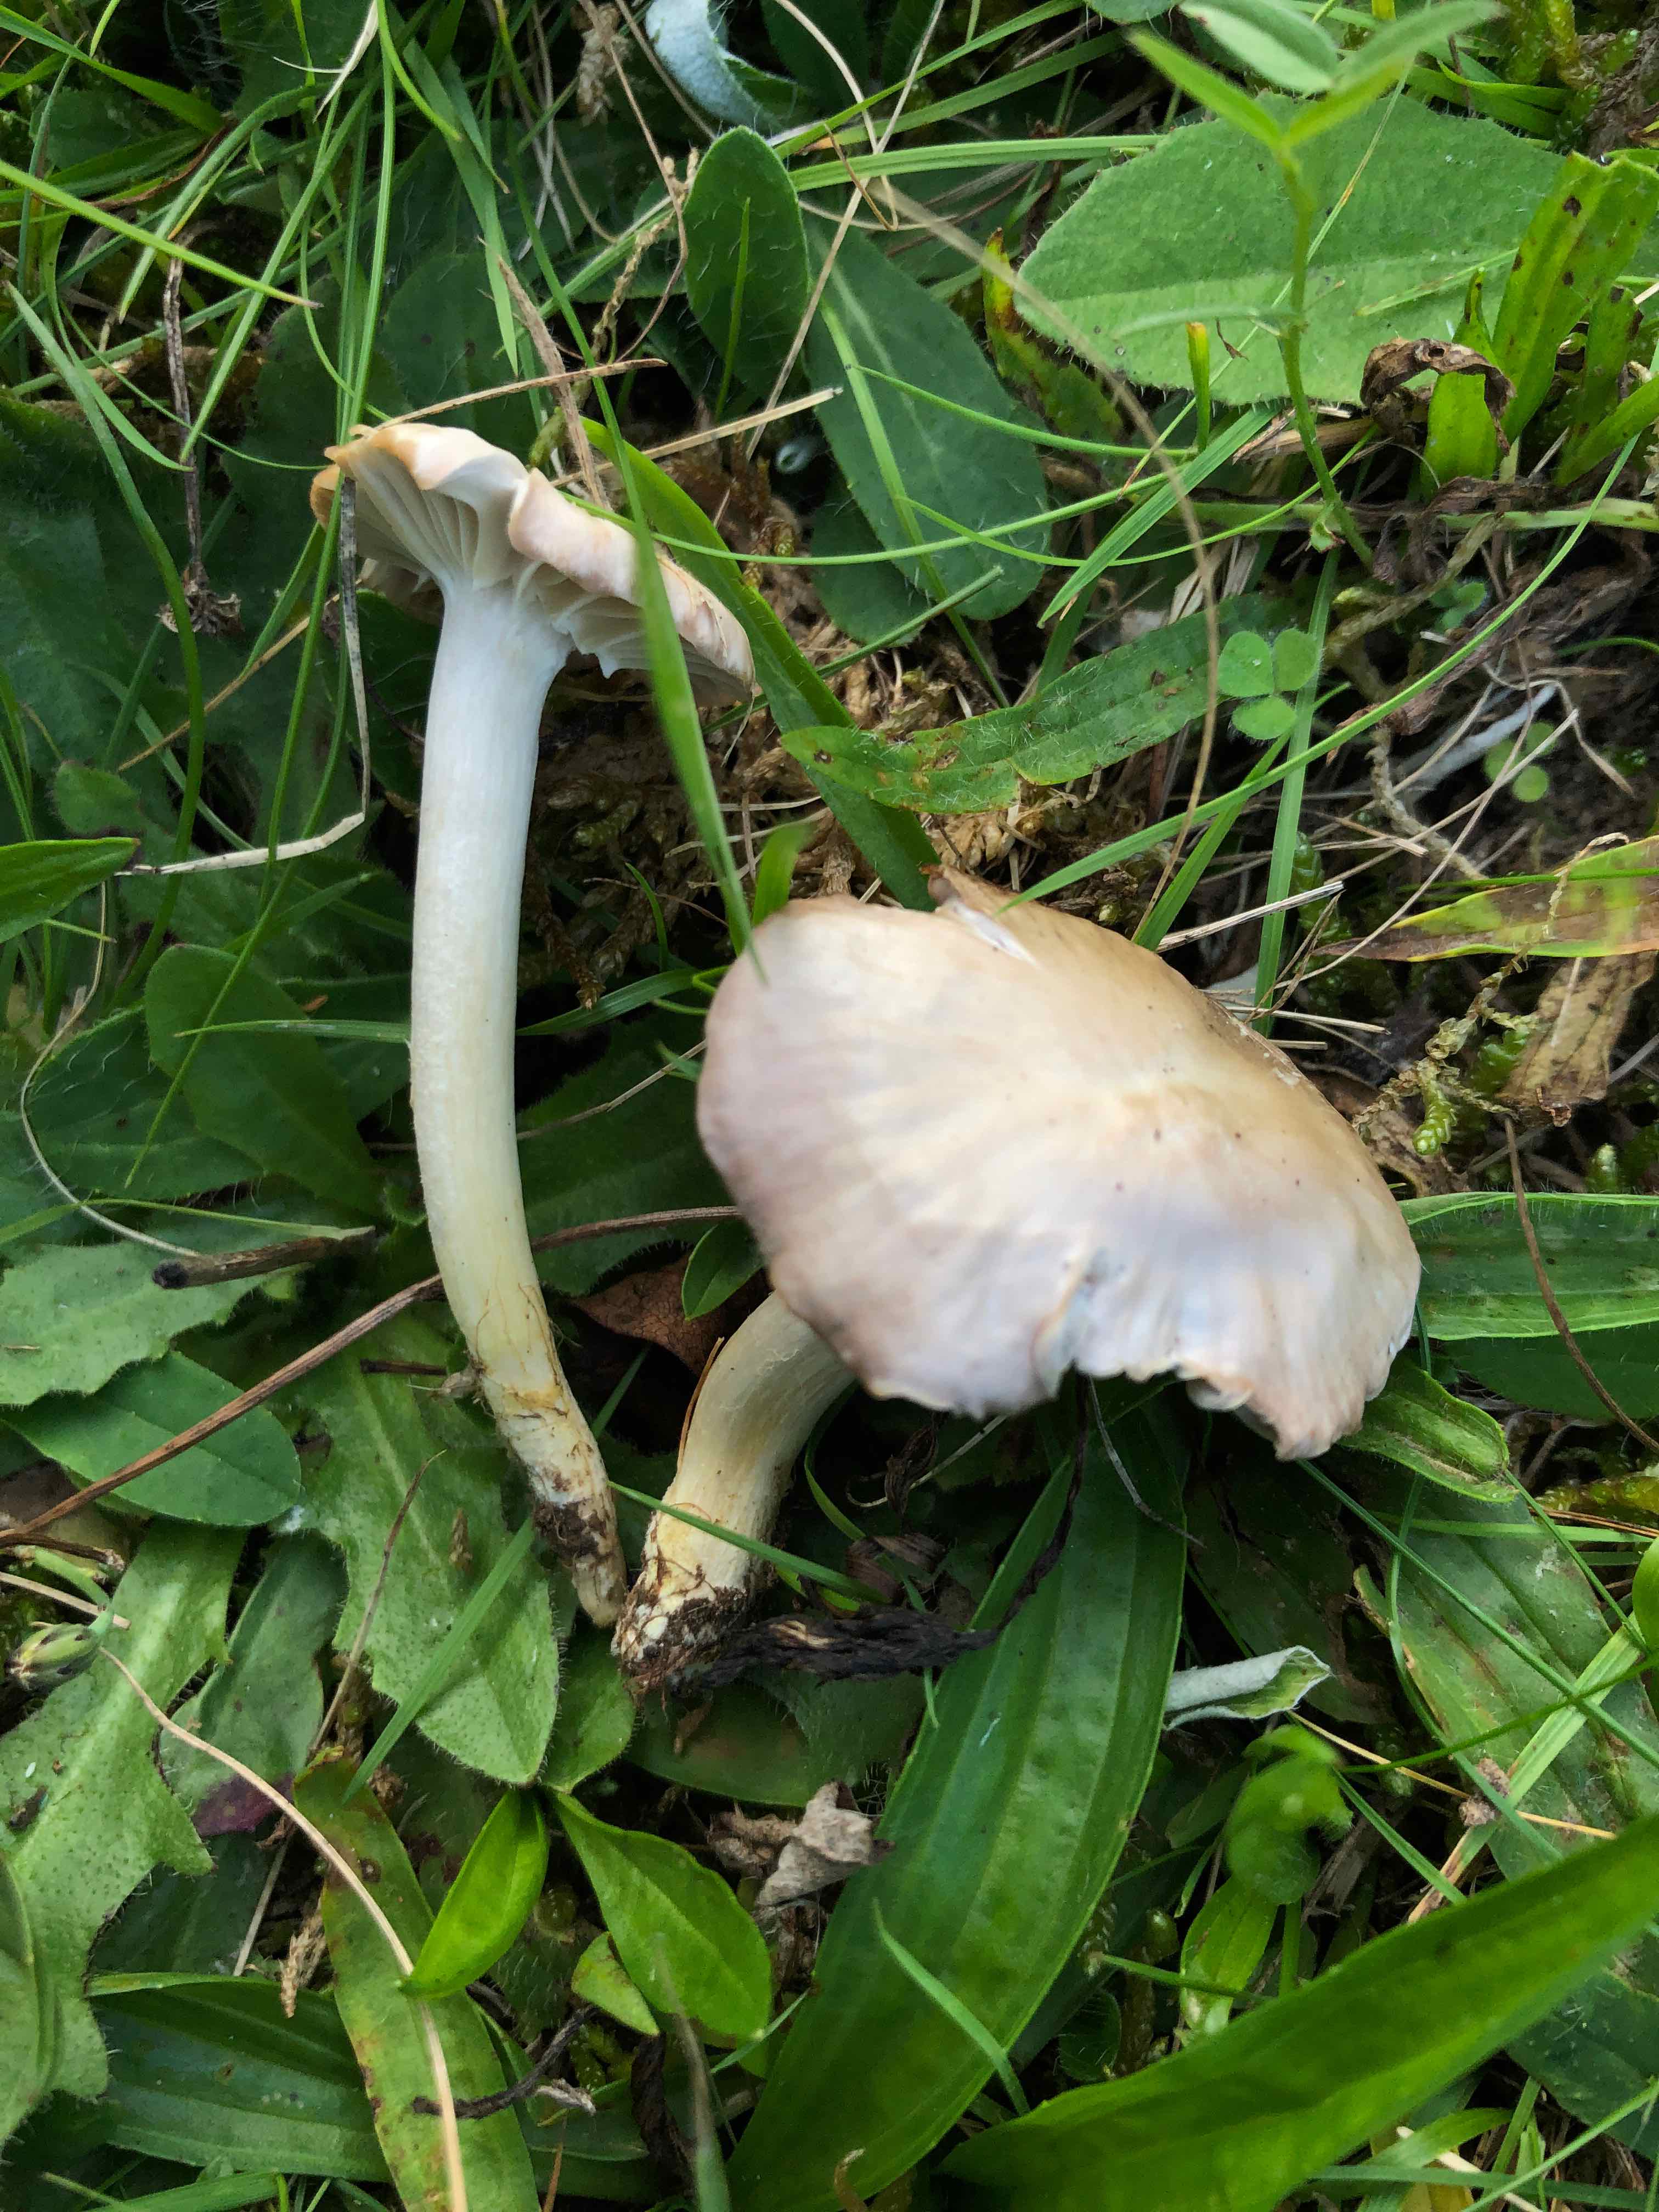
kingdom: Fungi
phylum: Basidiomycota
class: Agaricomycetes
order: Agaricales
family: Hygrophoraceae
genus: Cuphophyllus
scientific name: Cuphophyllus flavipes
